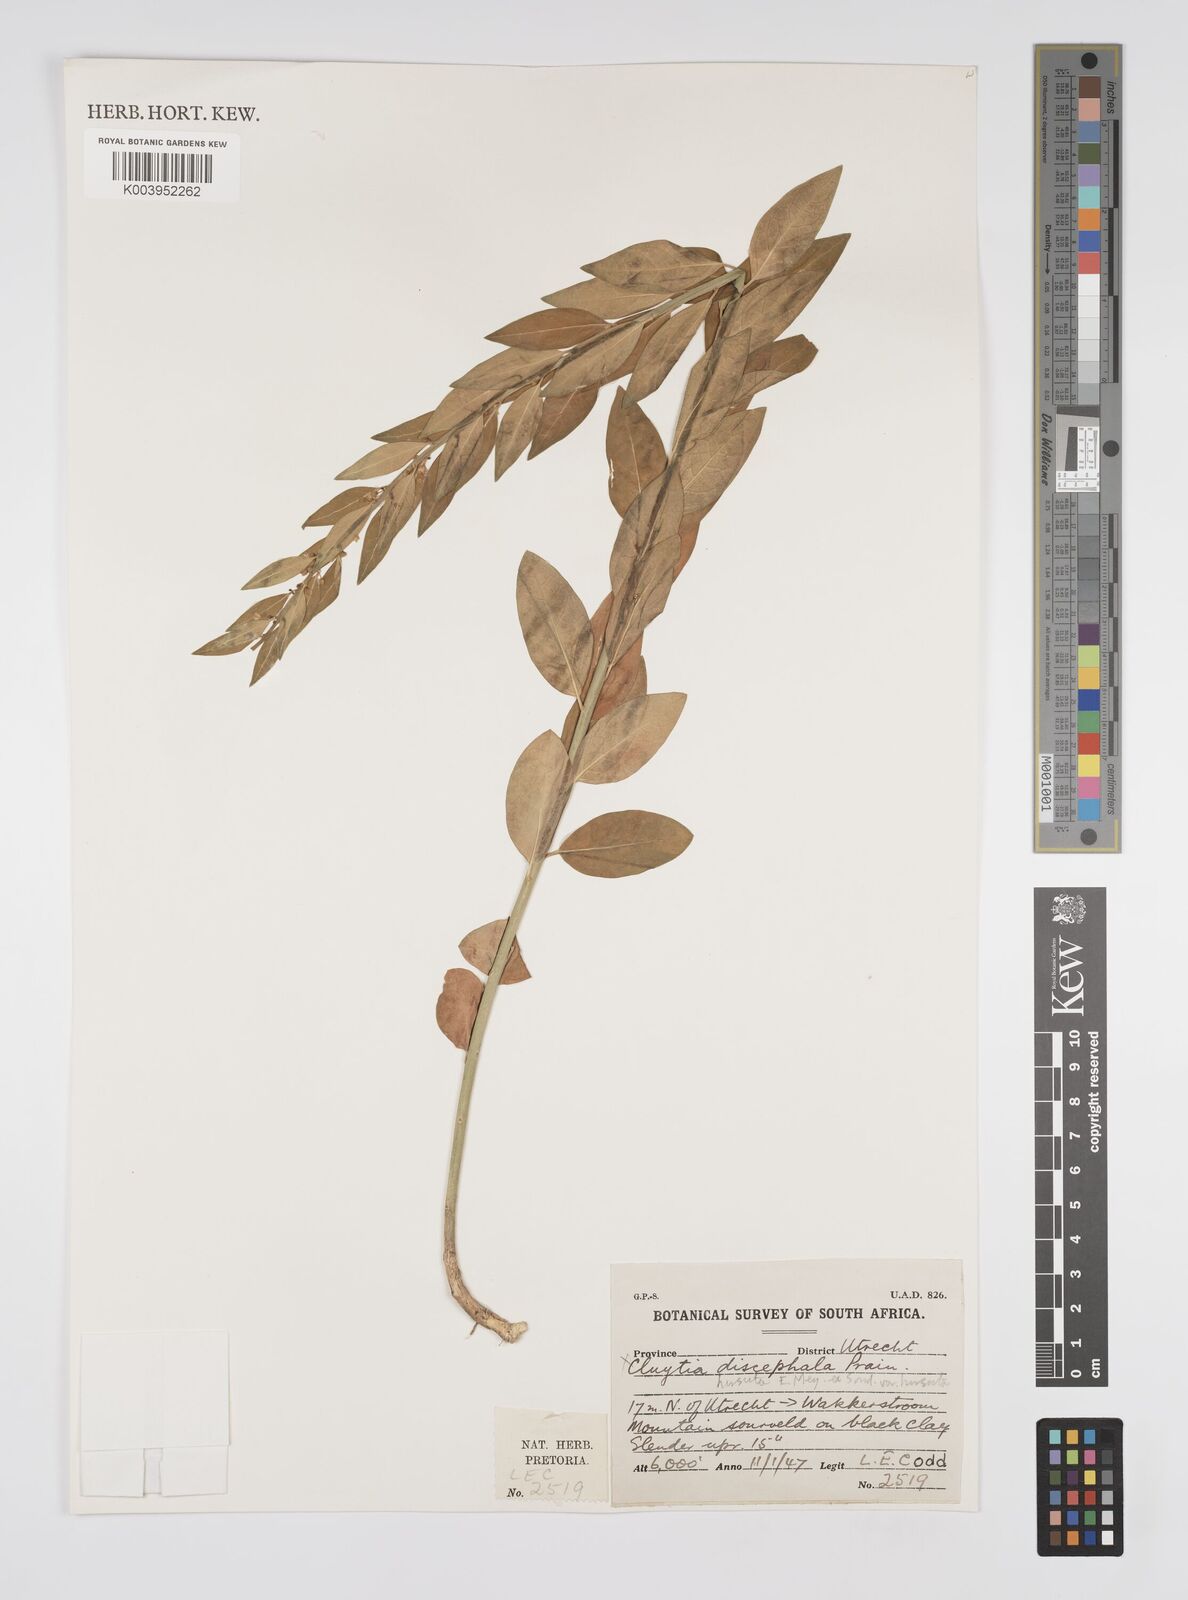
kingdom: Plantae
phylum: Tracheophyta
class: Magnoliopsida
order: Malpighiales
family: Peraceae
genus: Clutia
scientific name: Clutia affinis
